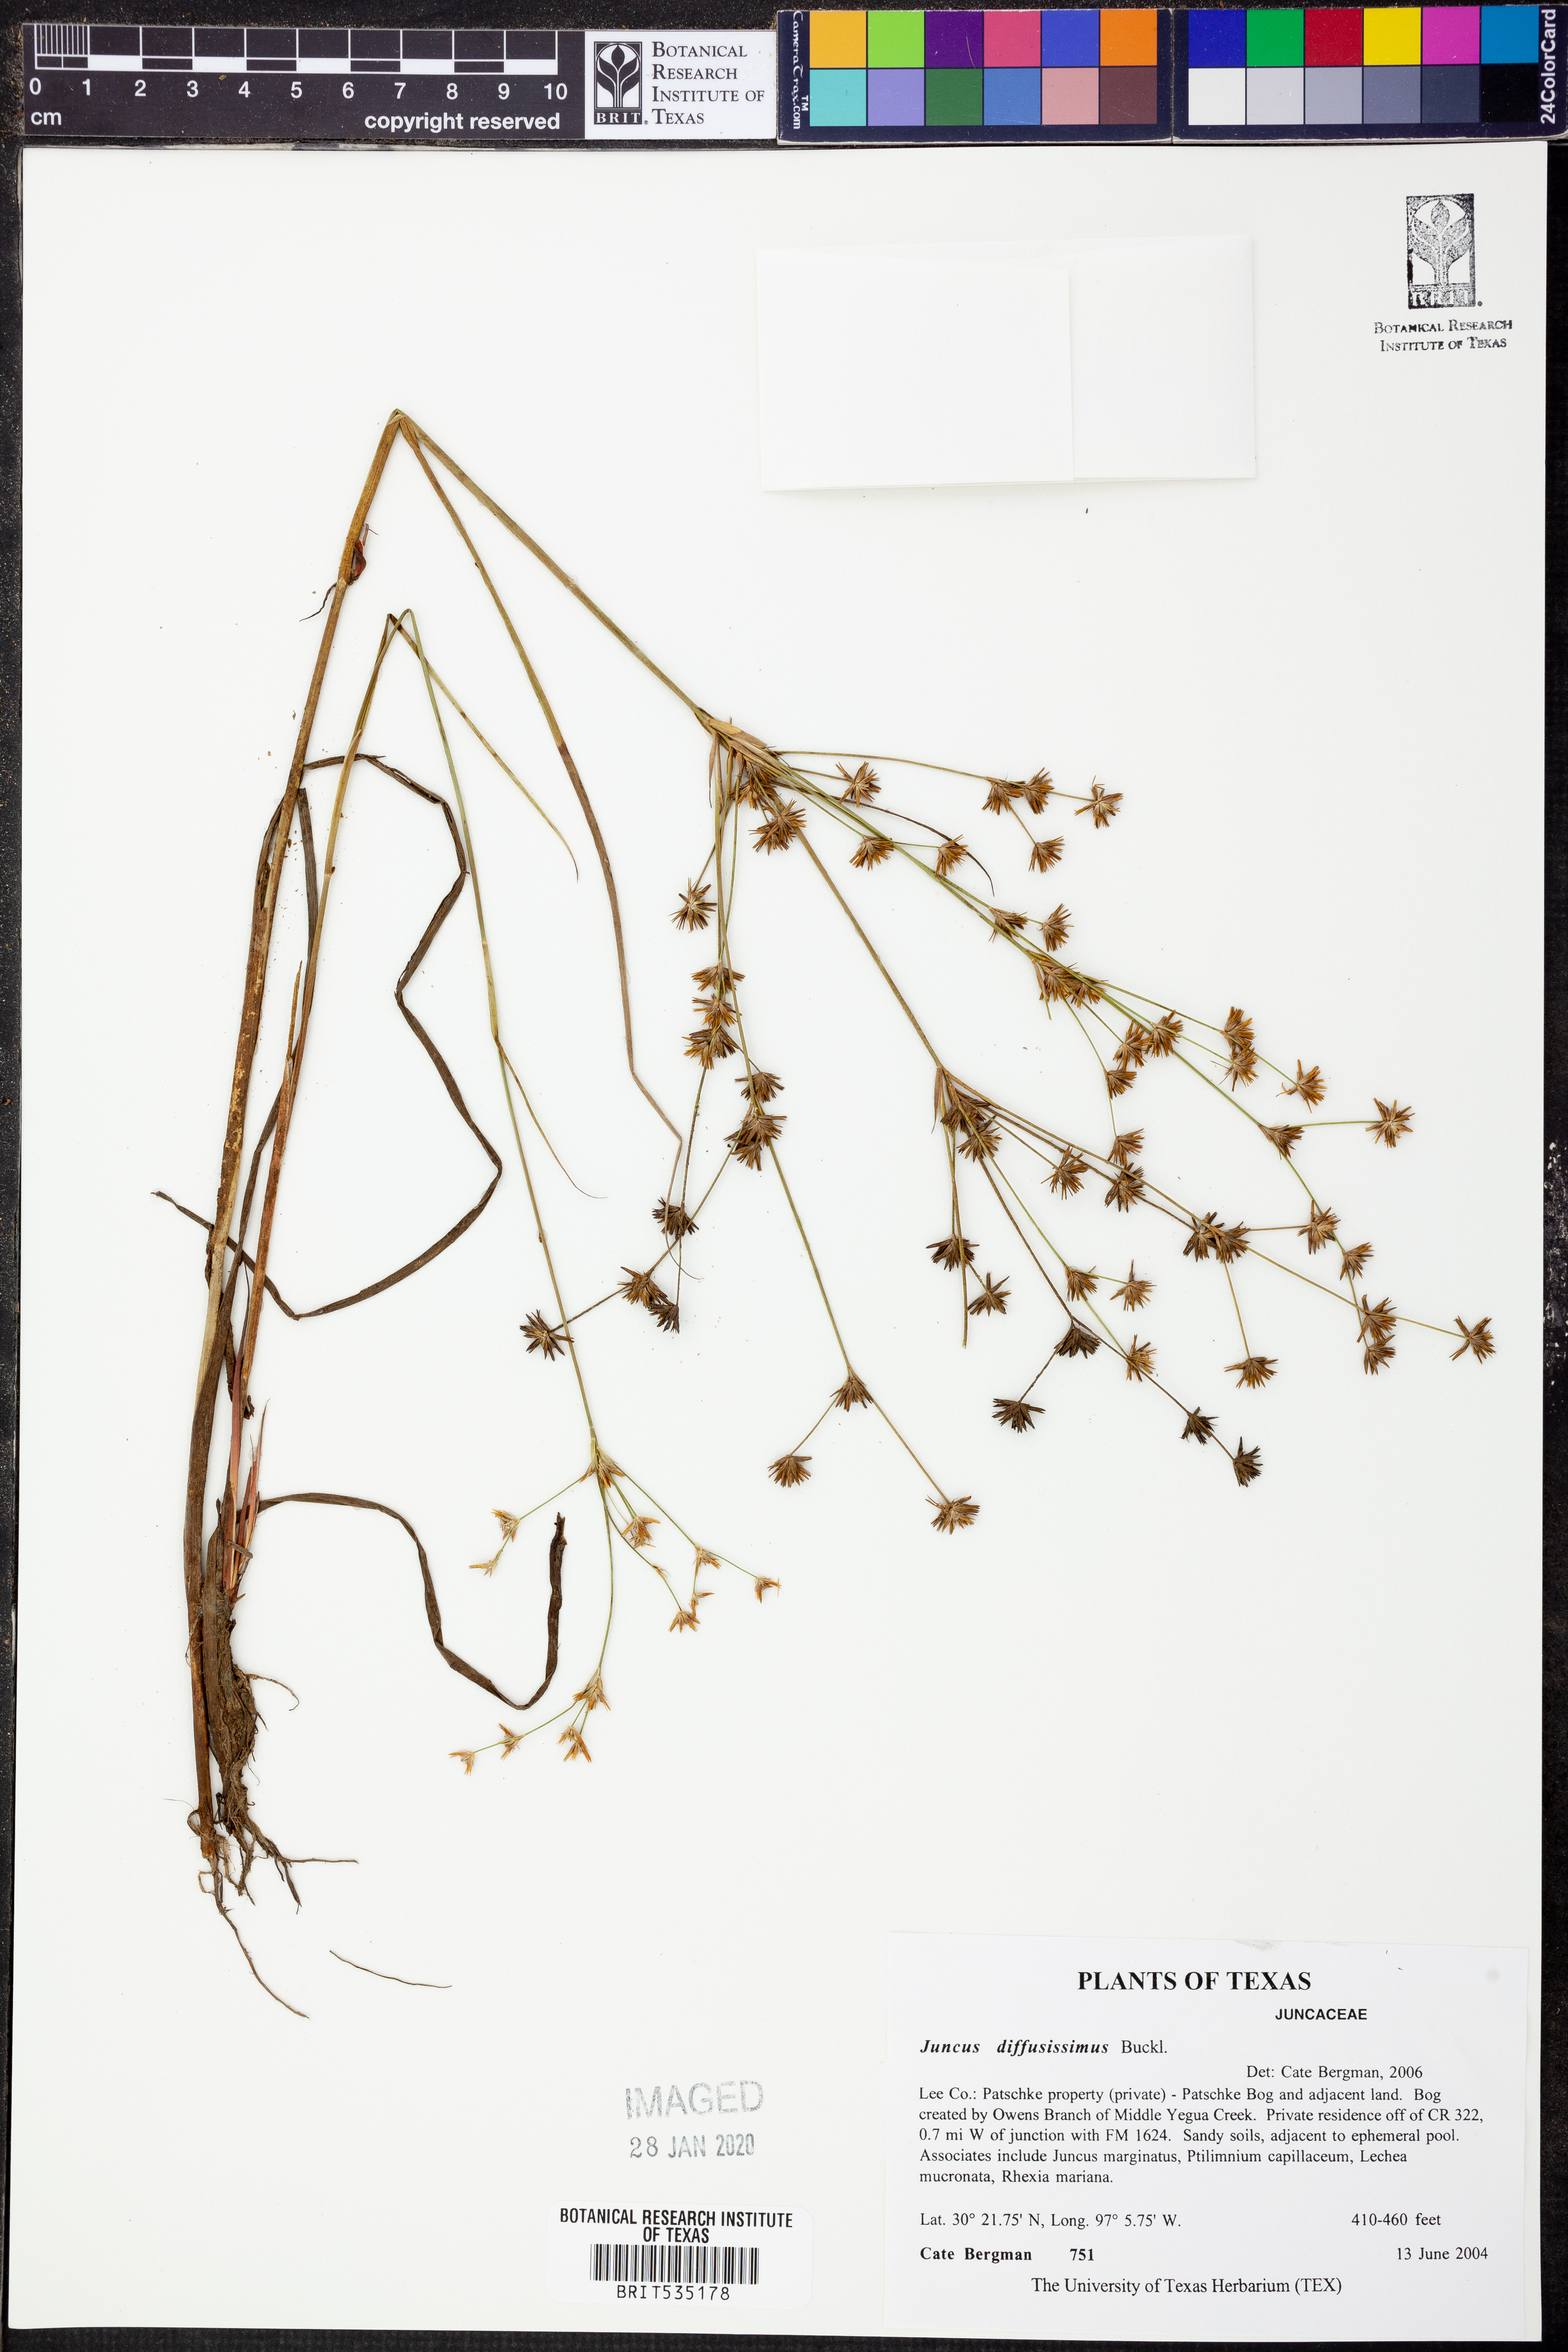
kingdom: Plantae
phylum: Tracheophyta
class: Liliopsida
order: Poales
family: Juncaceae
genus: Juncus
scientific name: Juncus diffusissimus
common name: Slimpod rush
